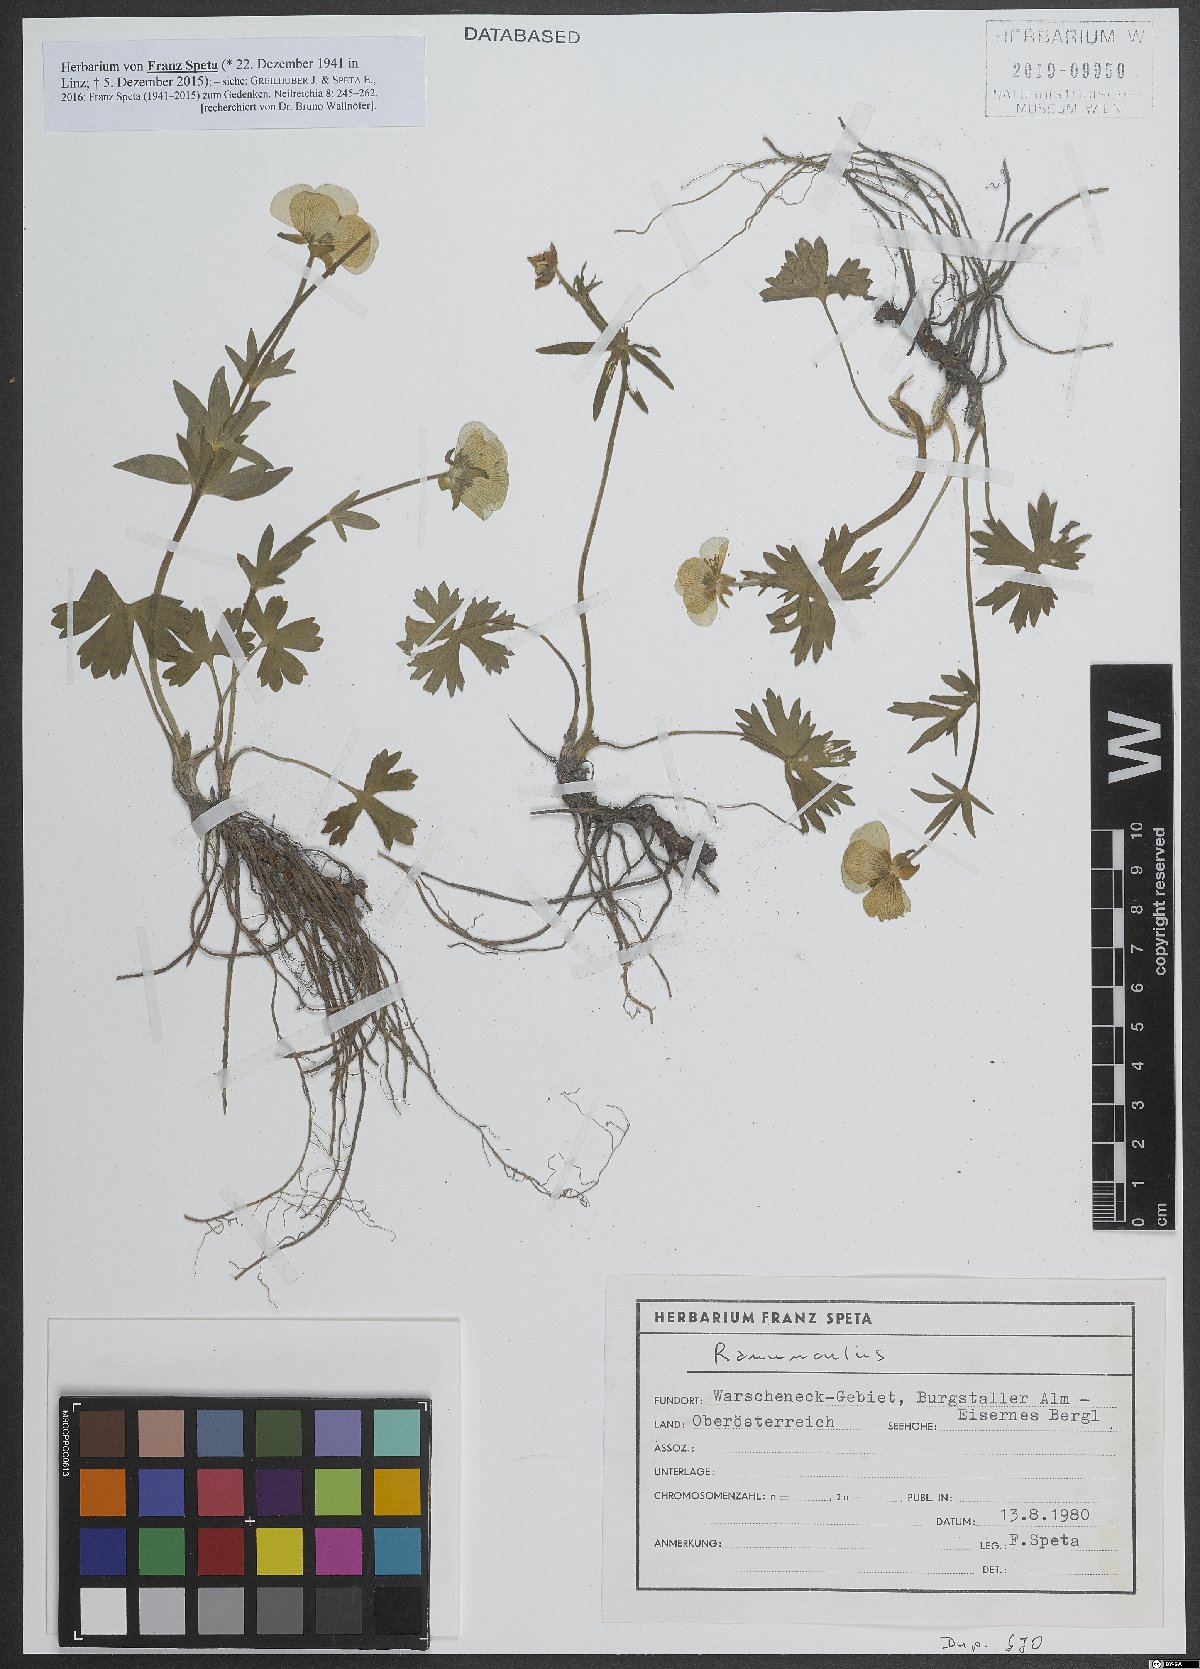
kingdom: Plantae
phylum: Tracheophyta
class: Magnoliopsida
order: Ranunculales
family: Ranunculaceae
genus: Ranunculus
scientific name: Ranunculus
